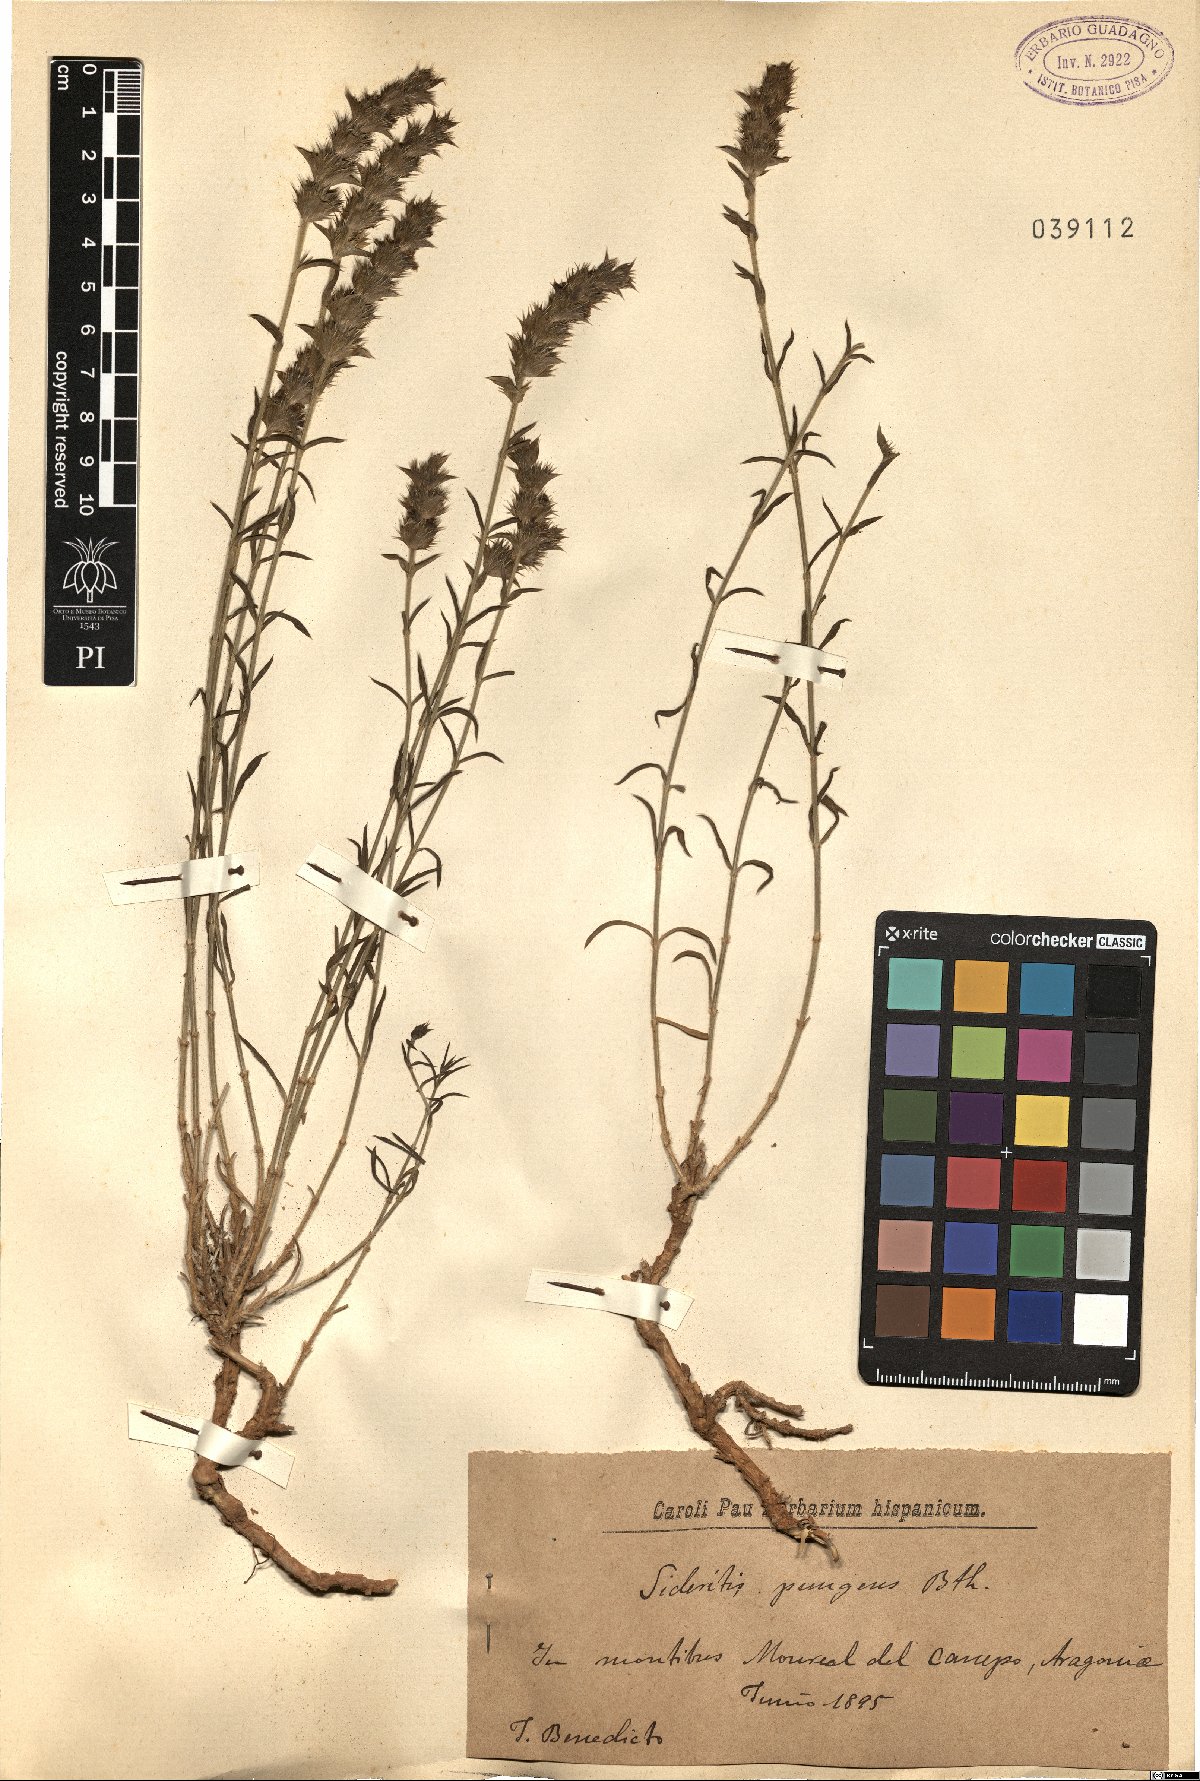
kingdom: Plantae
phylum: Tracheophyta
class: Magnoliopsida
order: Lamiales
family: Lamiaceae
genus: Sideritis
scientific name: Sideritis pungens
